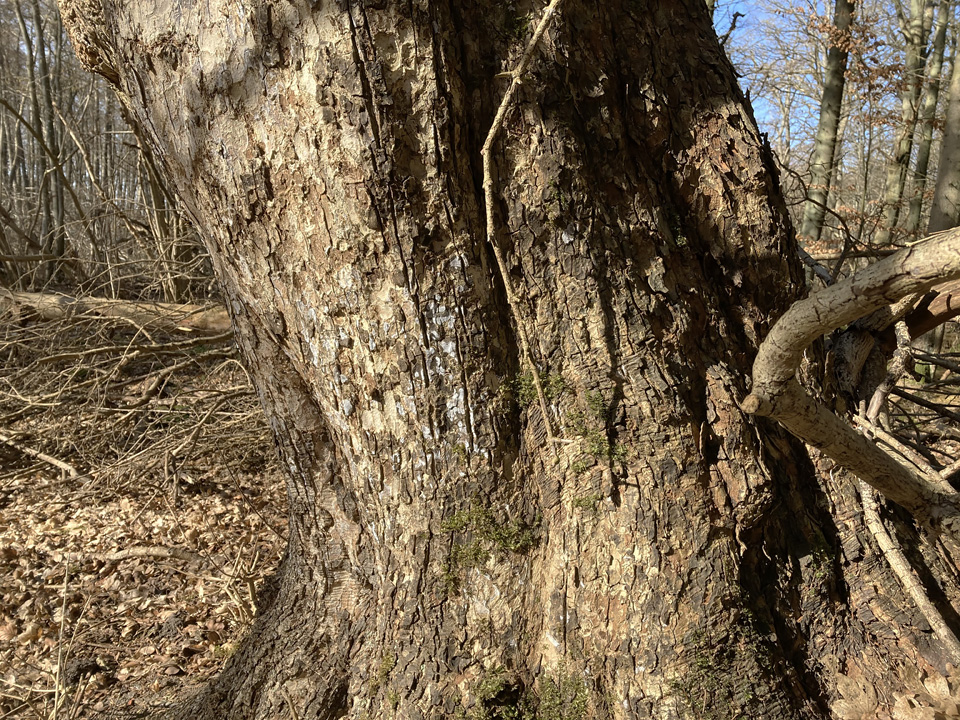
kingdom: Fungi
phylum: Basidiomycota
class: Agaricomycetes
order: Agaricales
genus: Dendrothele
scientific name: Dendrothele acerina
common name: navr-kalkplet
